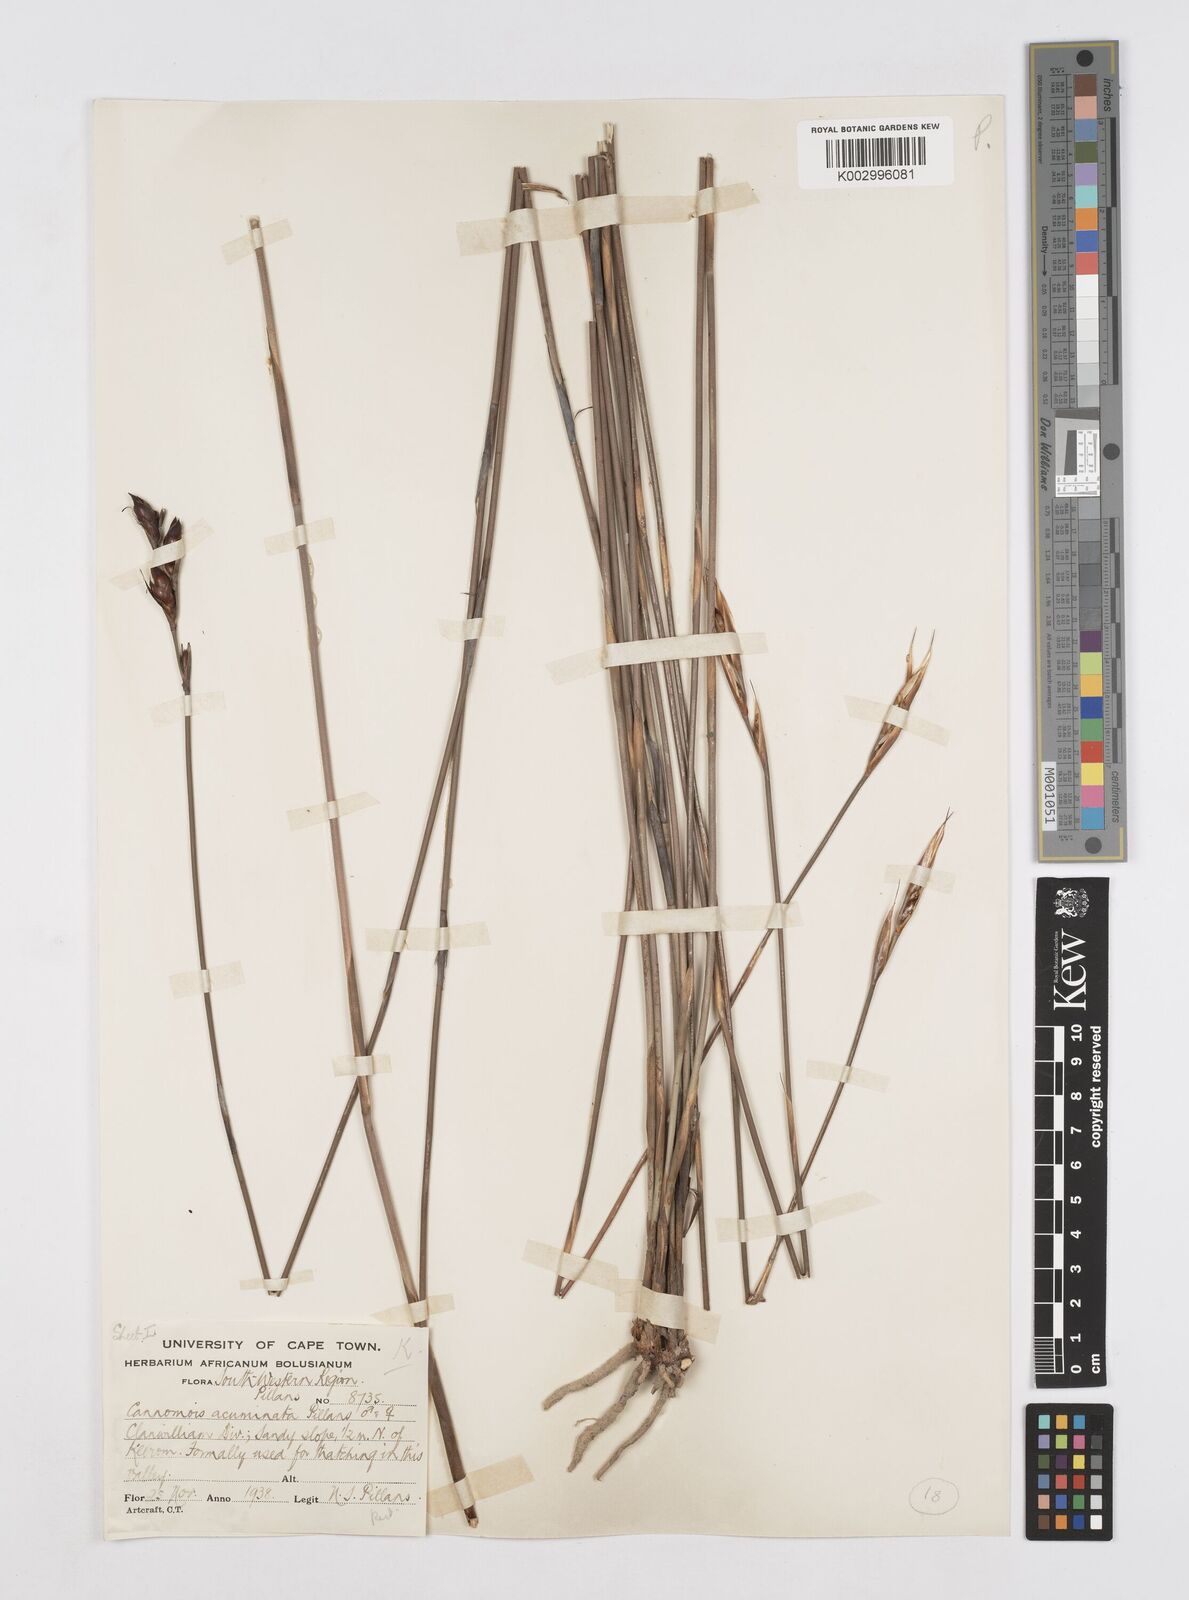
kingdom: Plantae
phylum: Tracheophyta
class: Liliopsida
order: Poales
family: Restionaceae
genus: Cannomois
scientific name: Cannomois parviflora
